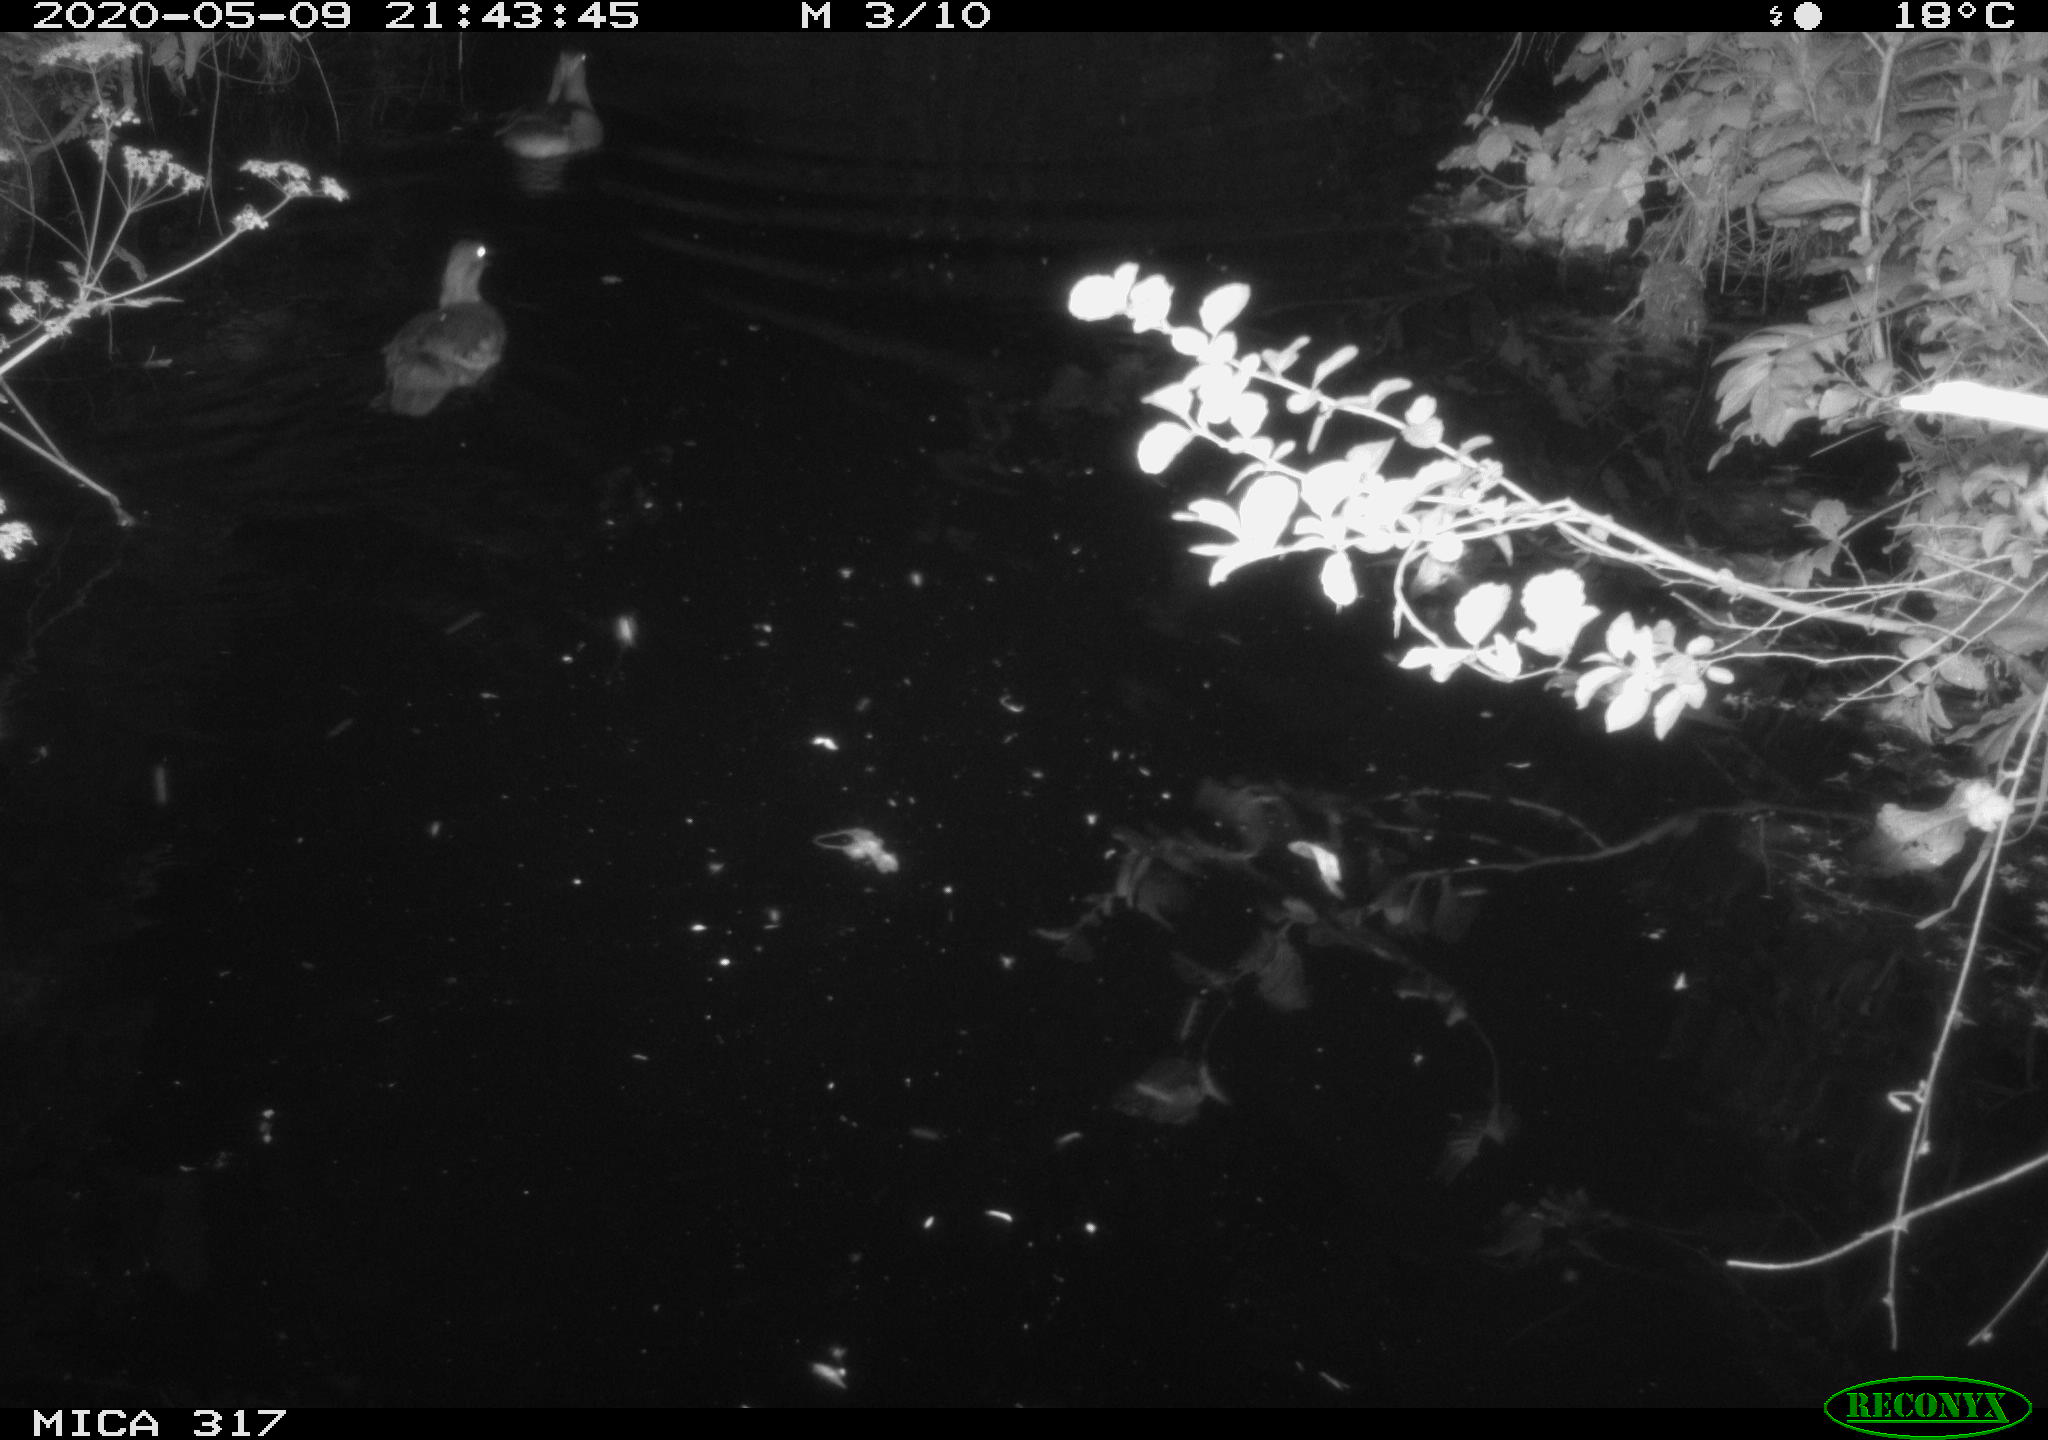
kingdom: Animalia
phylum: Chordata
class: Aves
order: Anseriformes
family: Anatidae
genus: Aix
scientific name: Aix galericulata
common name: Mandarin duck
